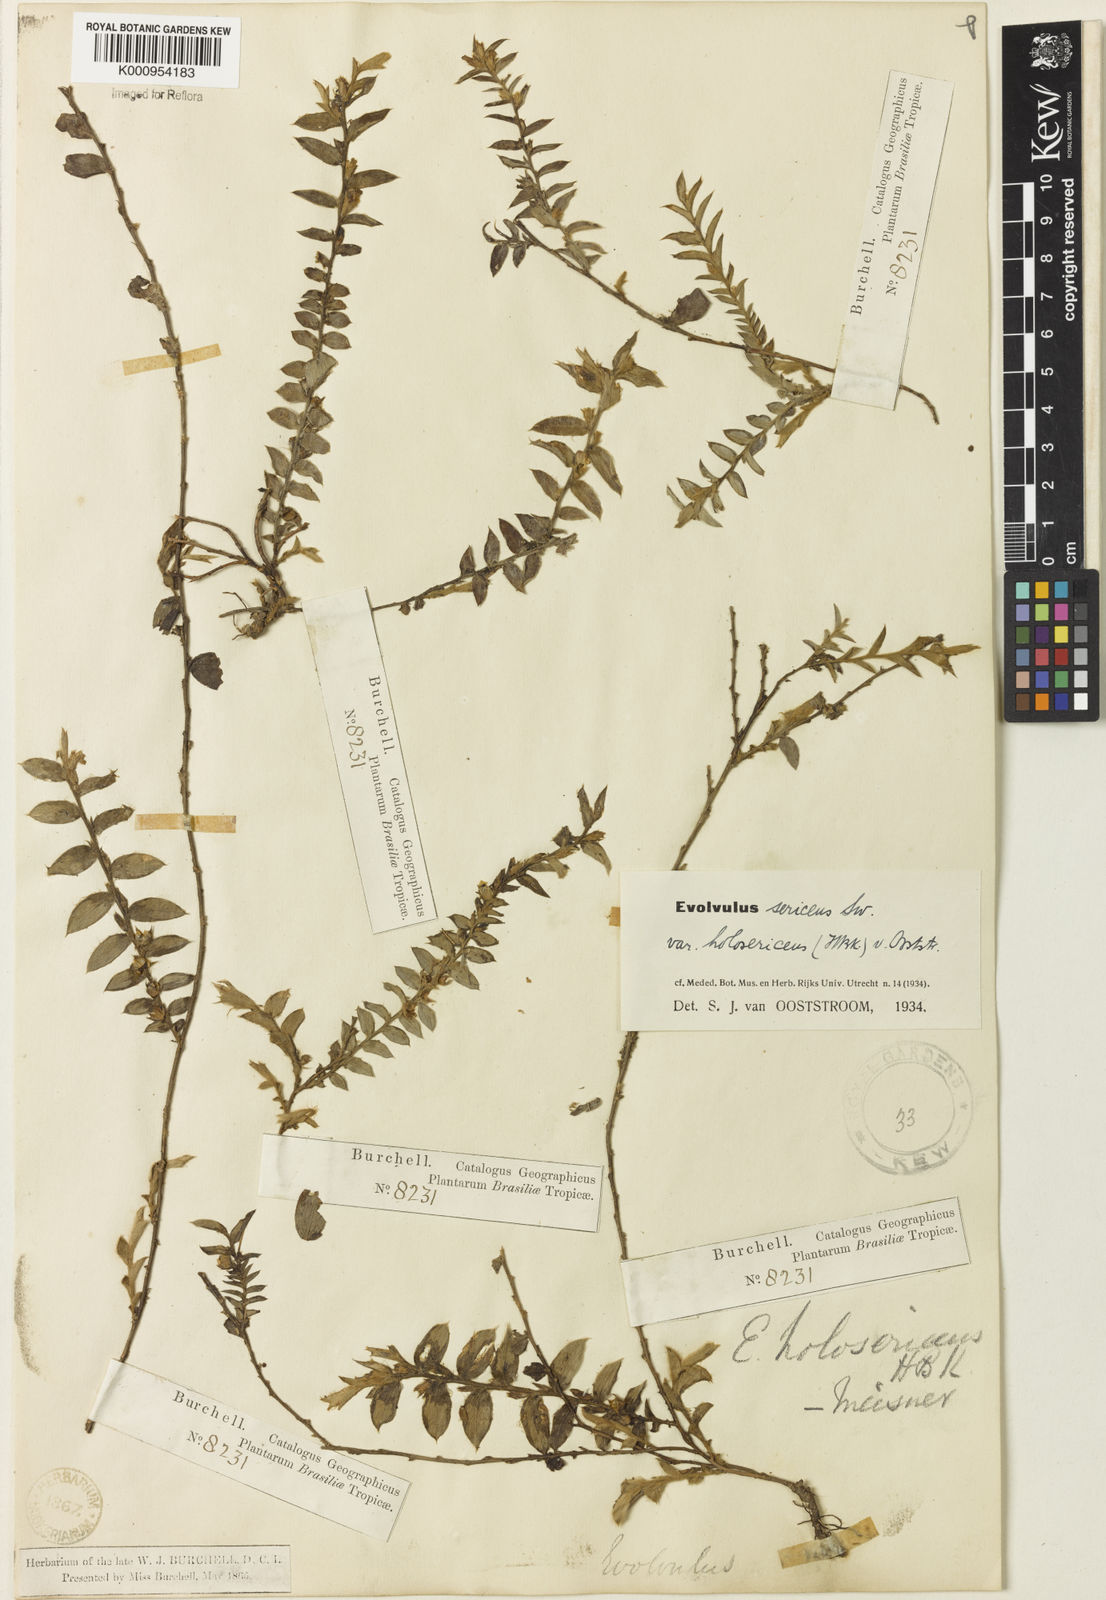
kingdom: Plantae
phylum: Tracheophyta
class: Magnoliopsida
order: Solanales
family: Convolvulaceae
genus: Evolvulus
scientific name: Evolvulus sericeus
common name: Blue dots
